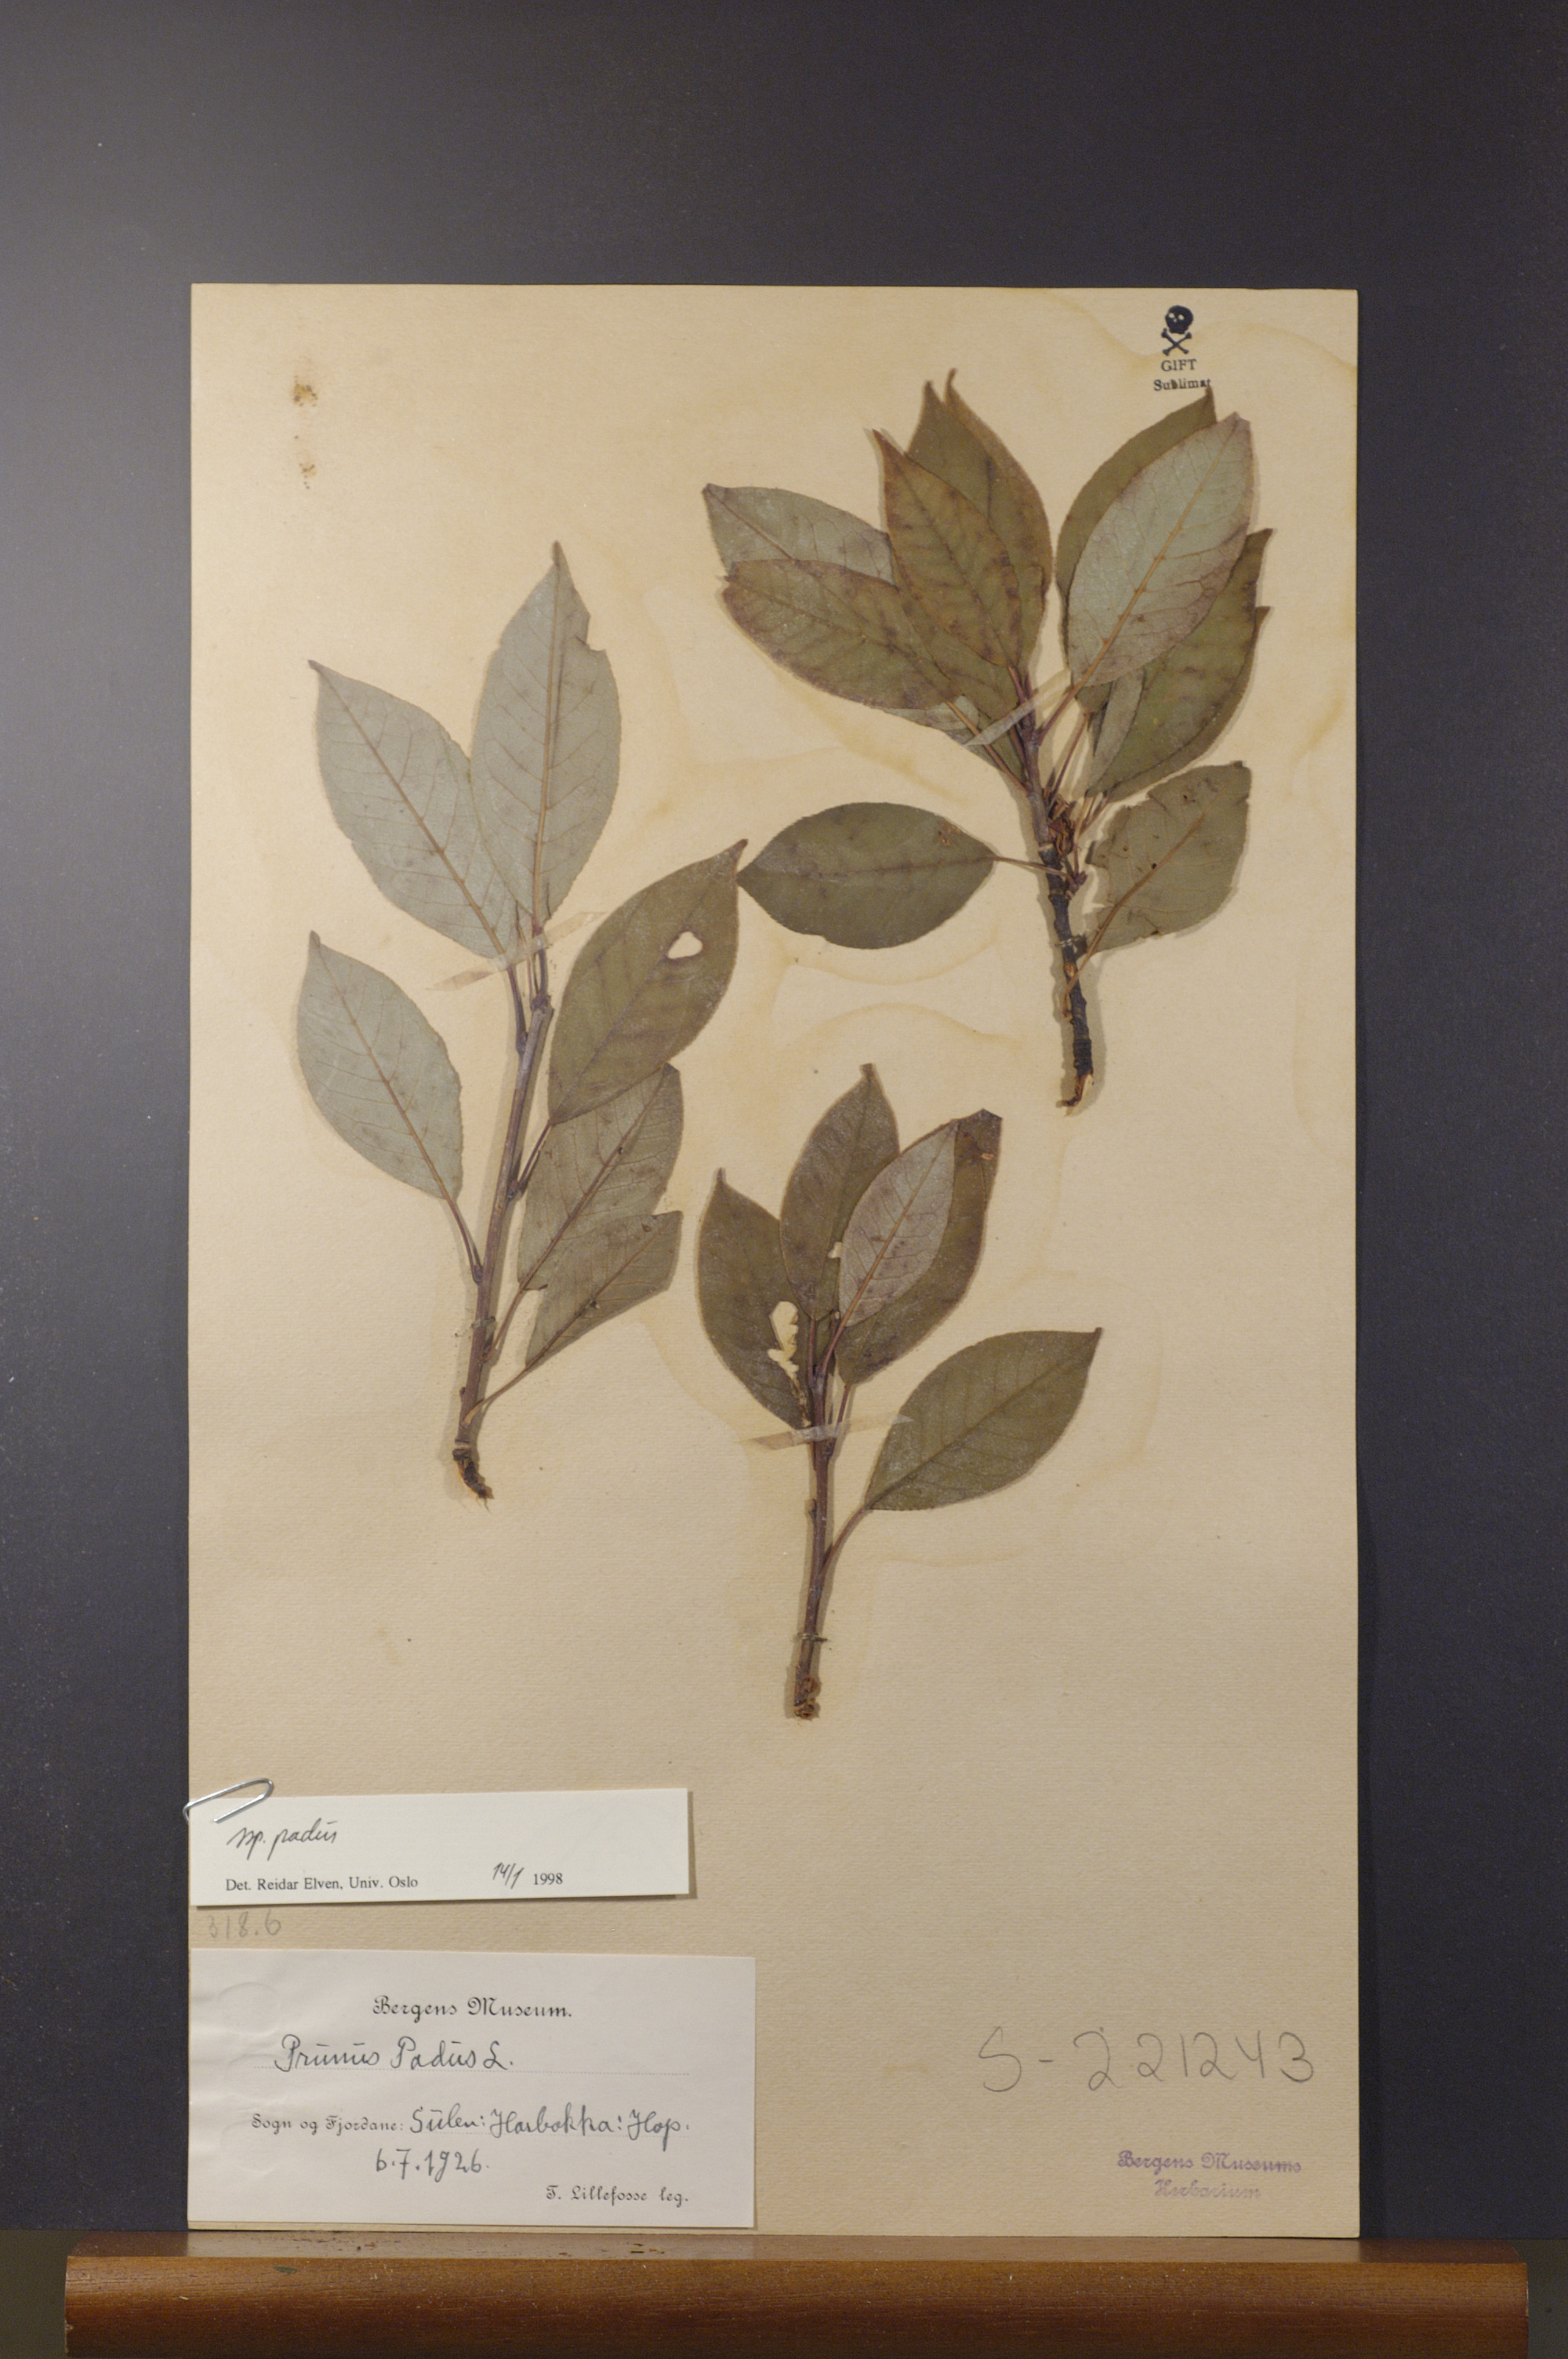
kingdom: Plantae
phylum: Tracheophyta
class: Magnoliopsida
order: Rosales
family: Rosaceae
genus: Prunus
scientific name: Prunus padus
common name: Bird cherry
